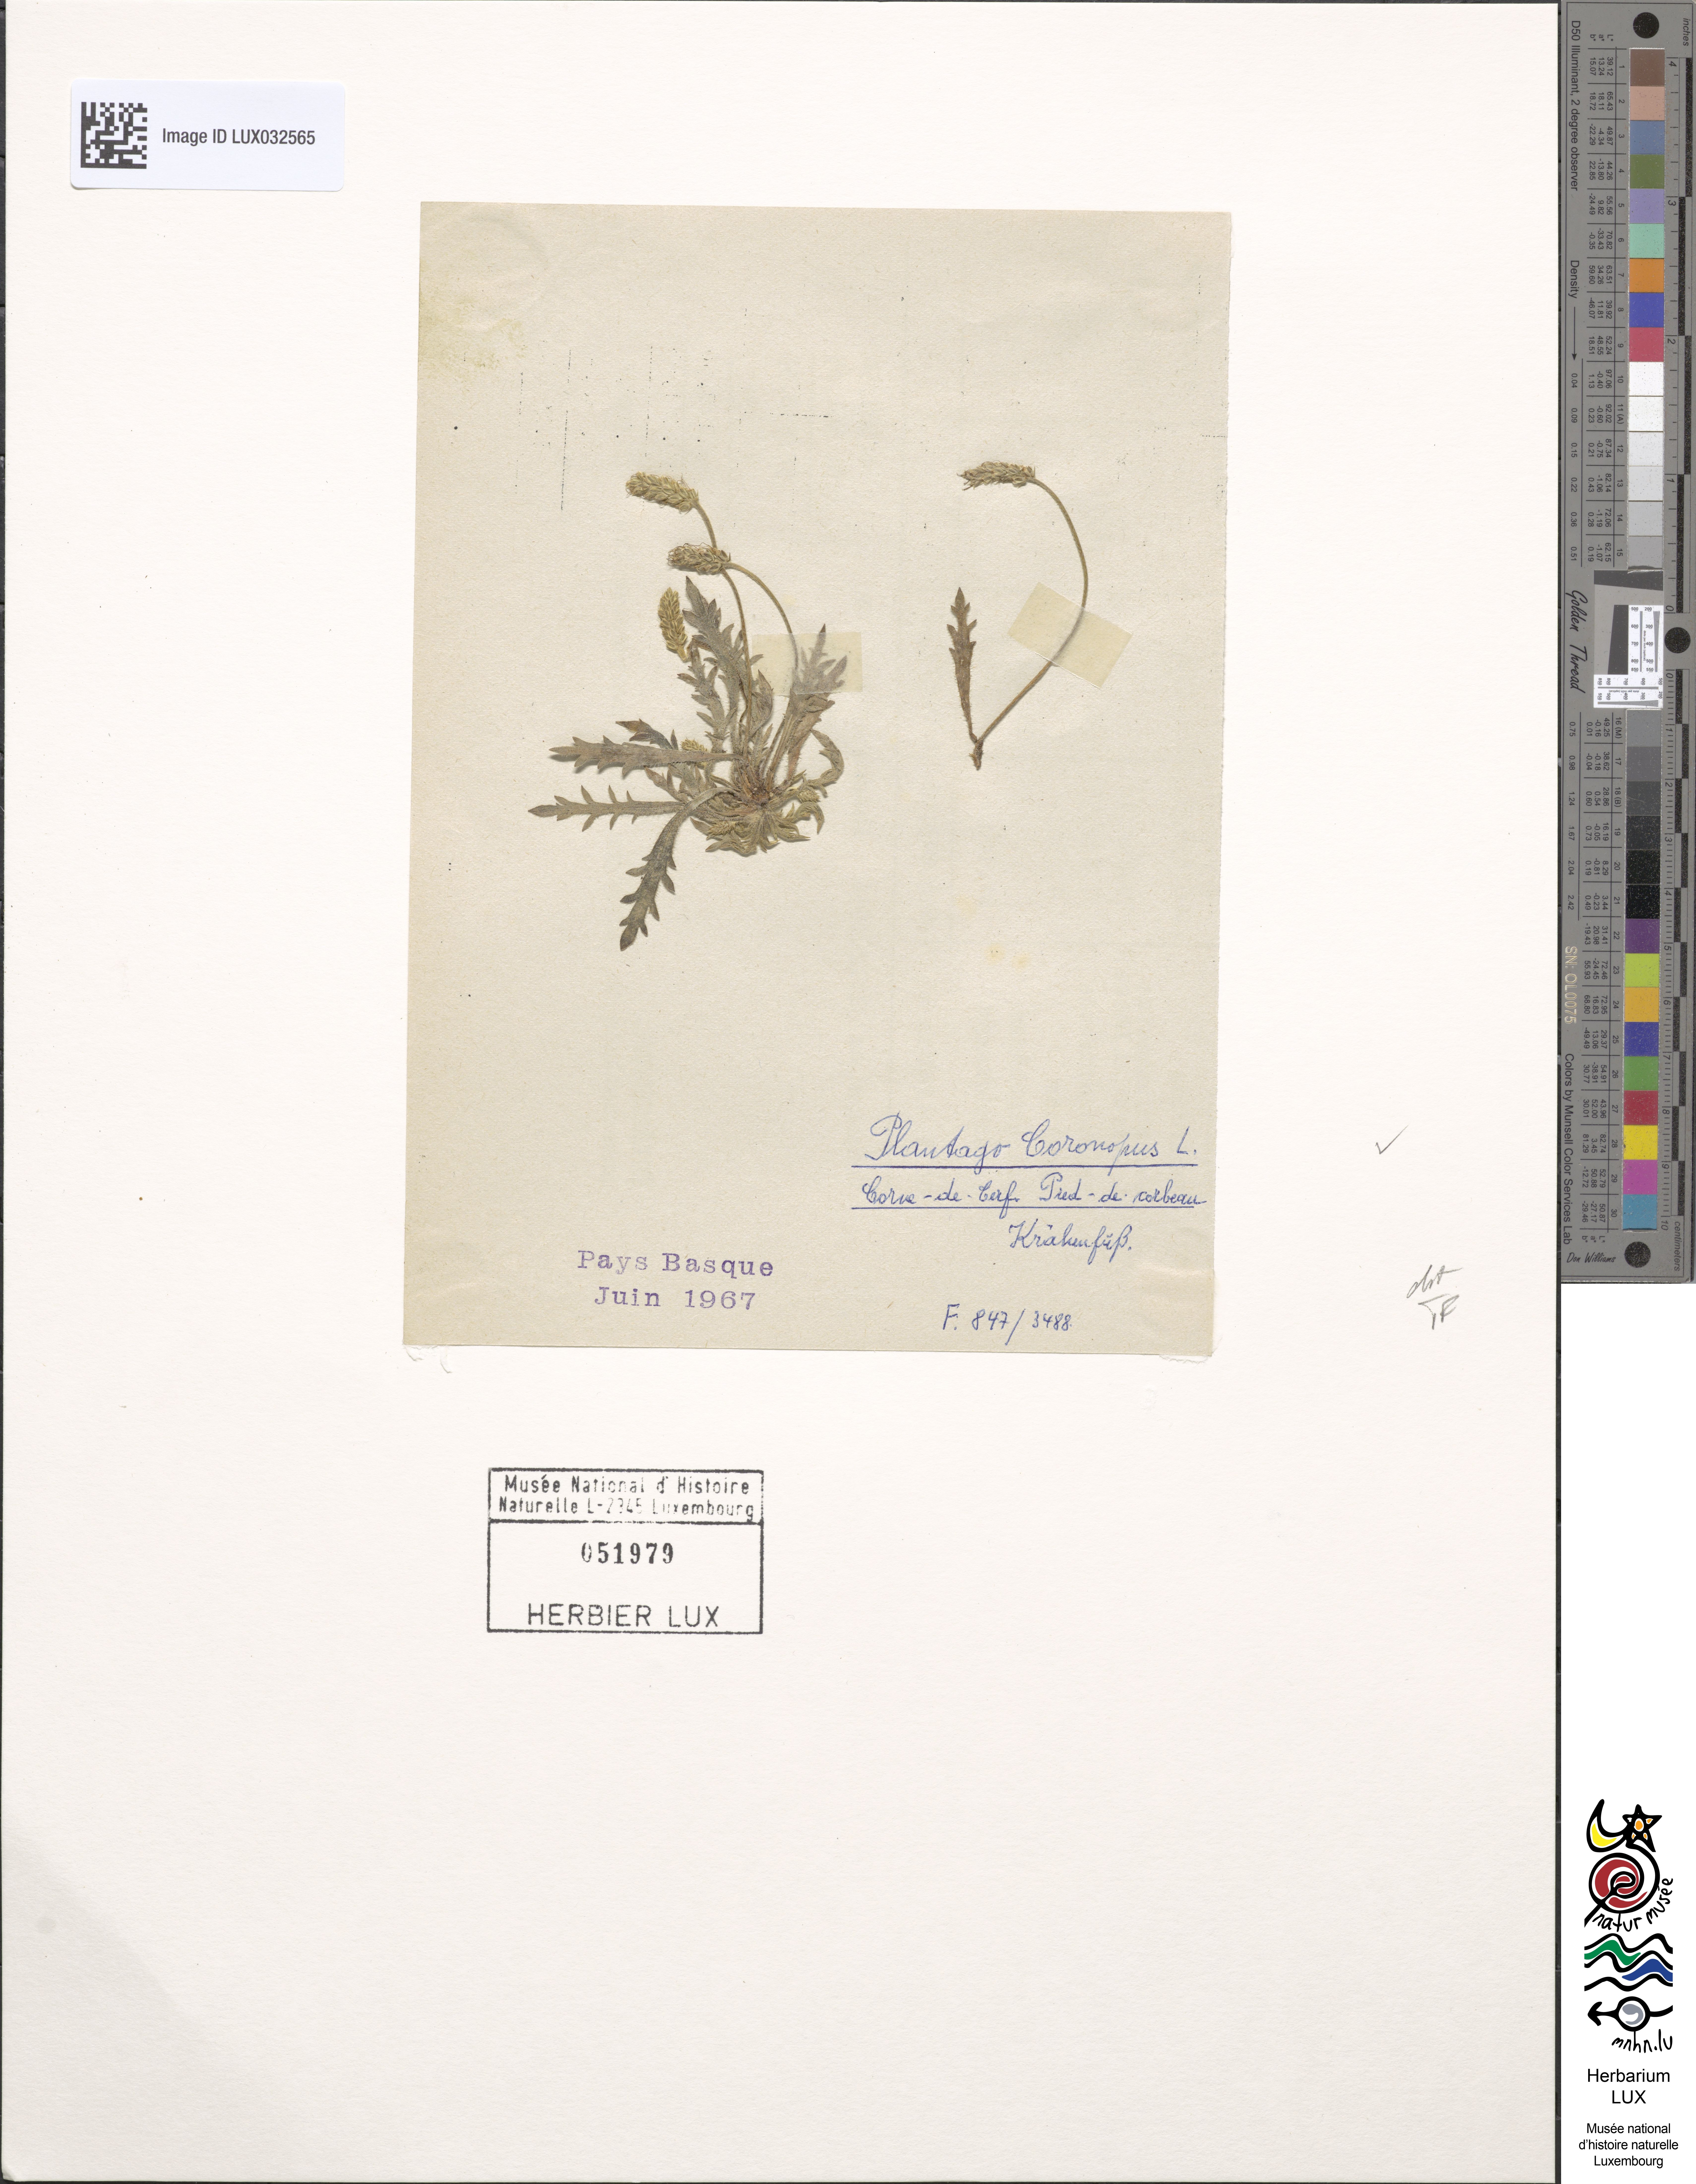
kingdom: Plantae
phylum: Tracheophyta
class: Magnoliopsida
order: Lamiales
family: Plantaginaceae
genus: Plantago
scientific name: Plantago coronopus
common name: Buck's-horn plantain
